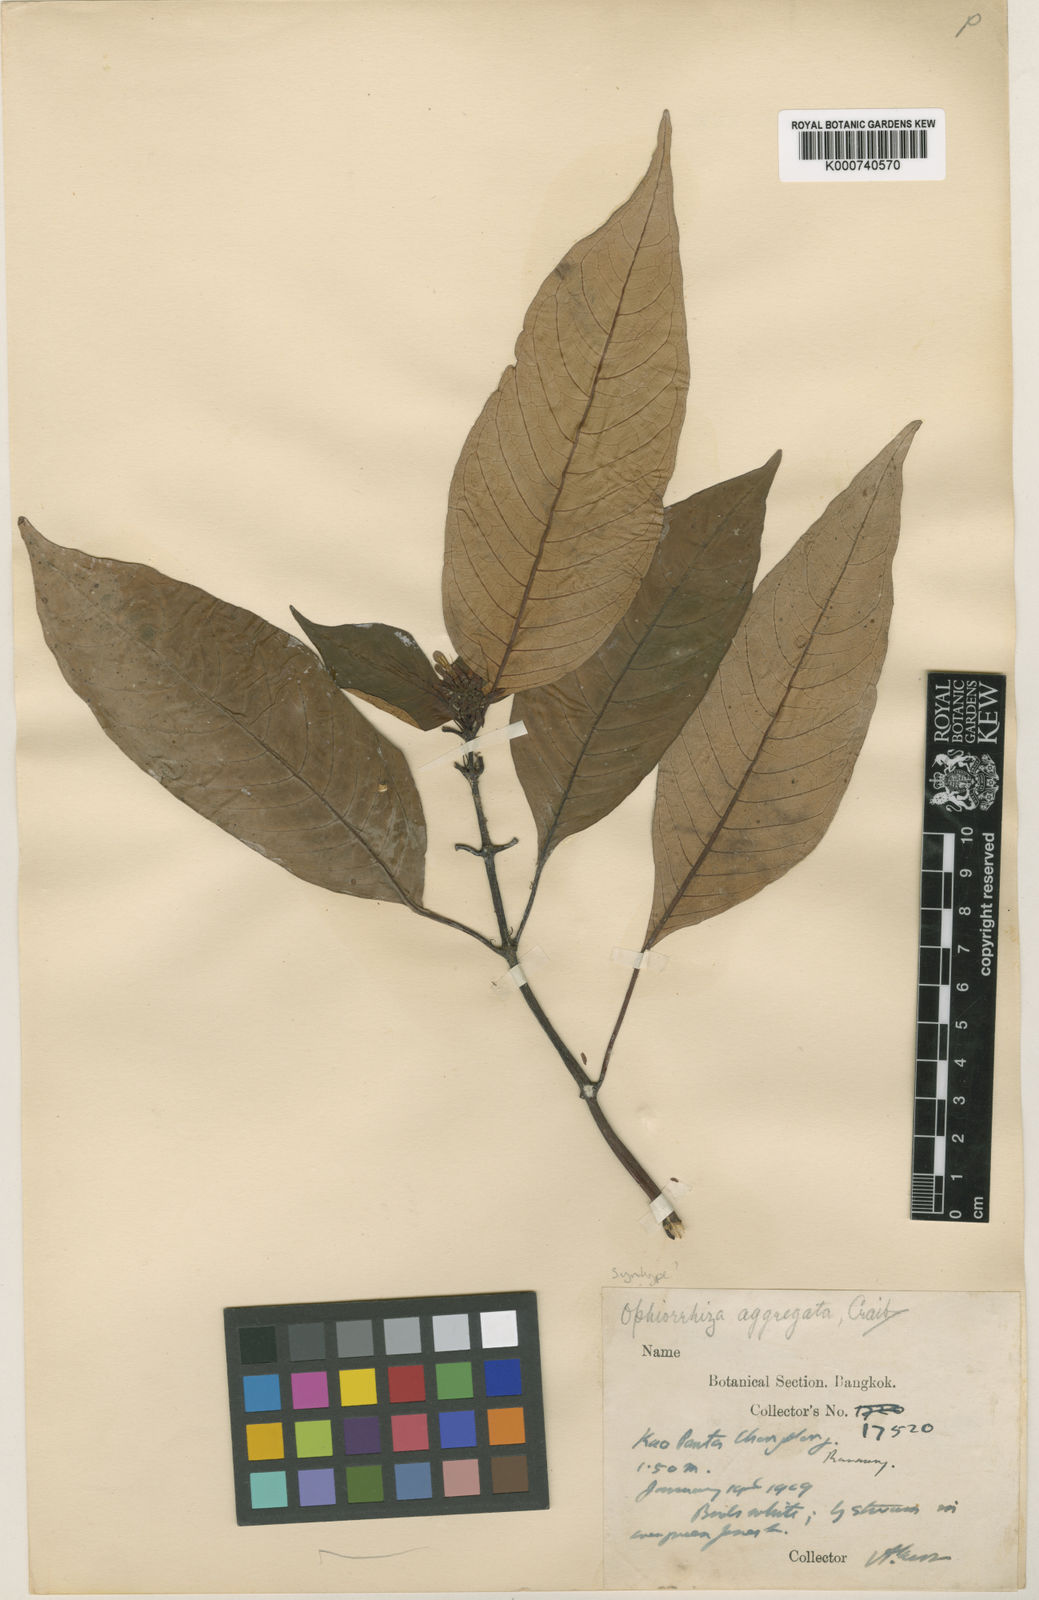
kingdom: Plantae
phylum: Tracheophyta
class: Magnoliopsida
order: Gentianales
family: Rubiaceae
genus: Ophiorrhiza
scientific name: Ophiorrhiza erubescens
